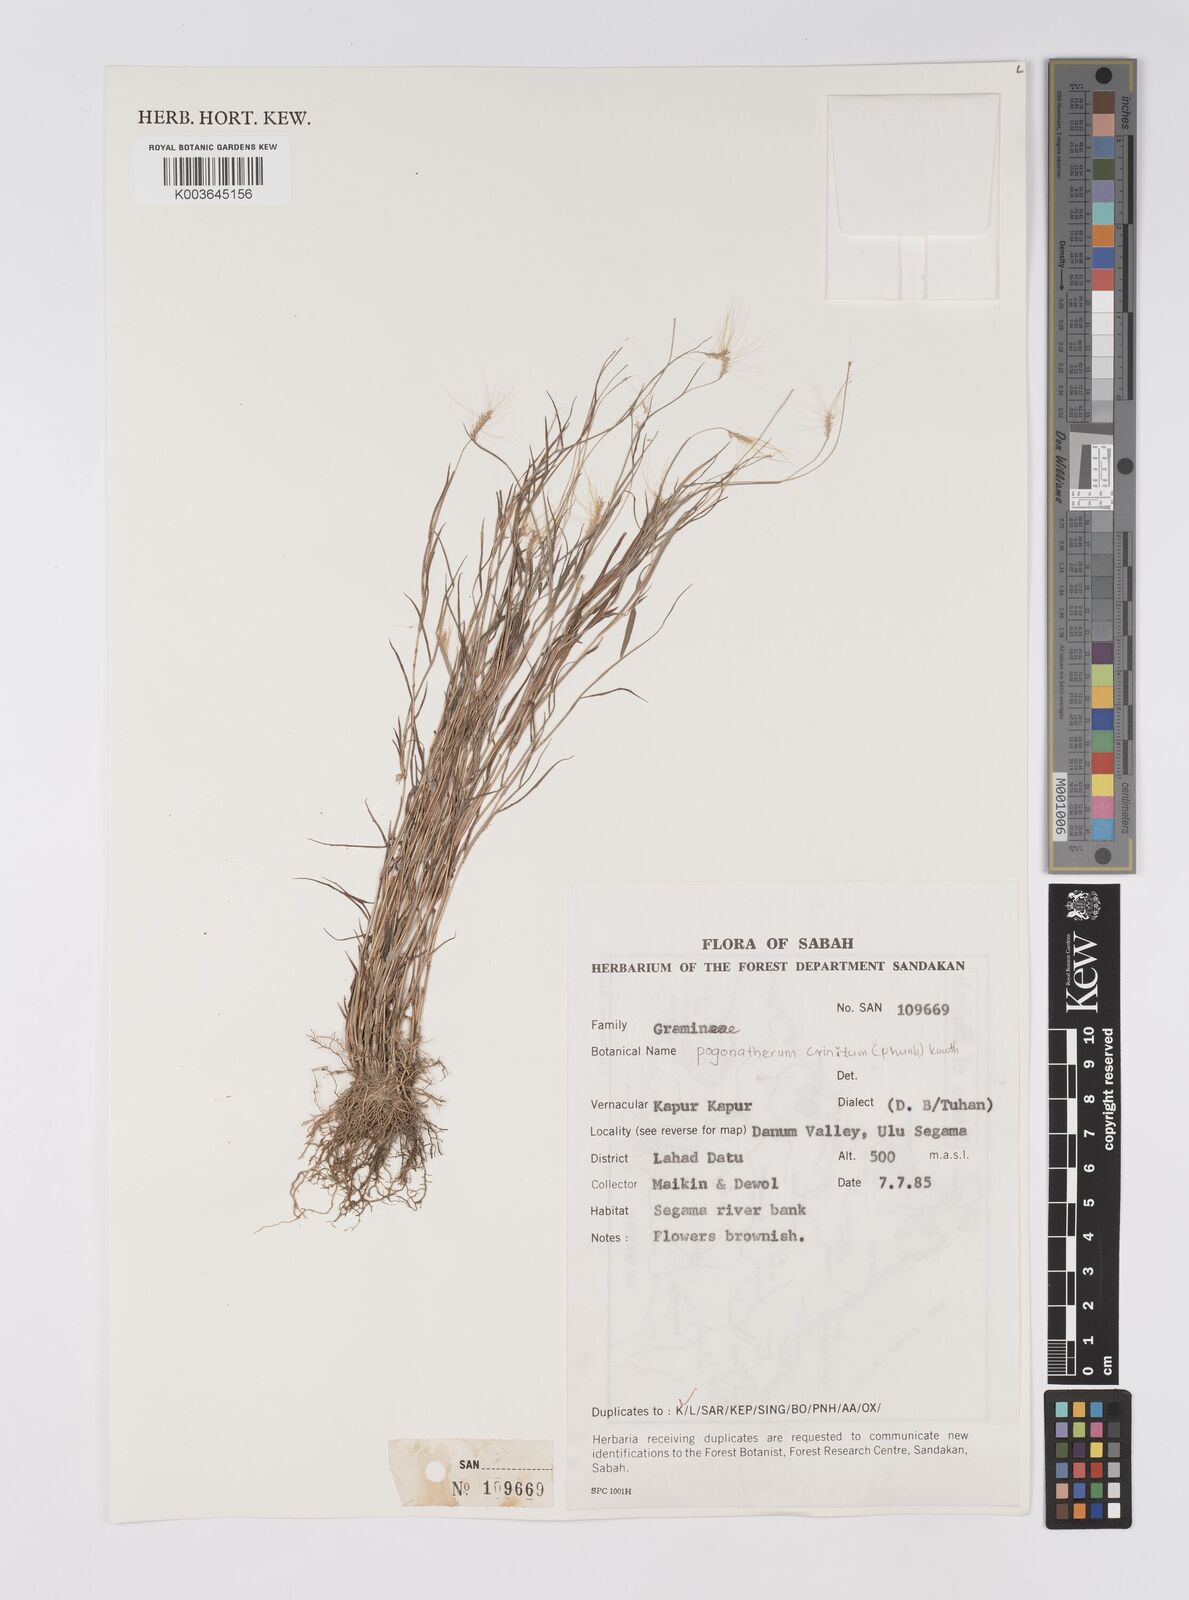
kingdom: Plantae
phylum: Tracheophyta
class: Liliopsida
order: Poales
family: Poaceae
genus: Pogonatherum
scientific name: Pogonatherum crinitum
